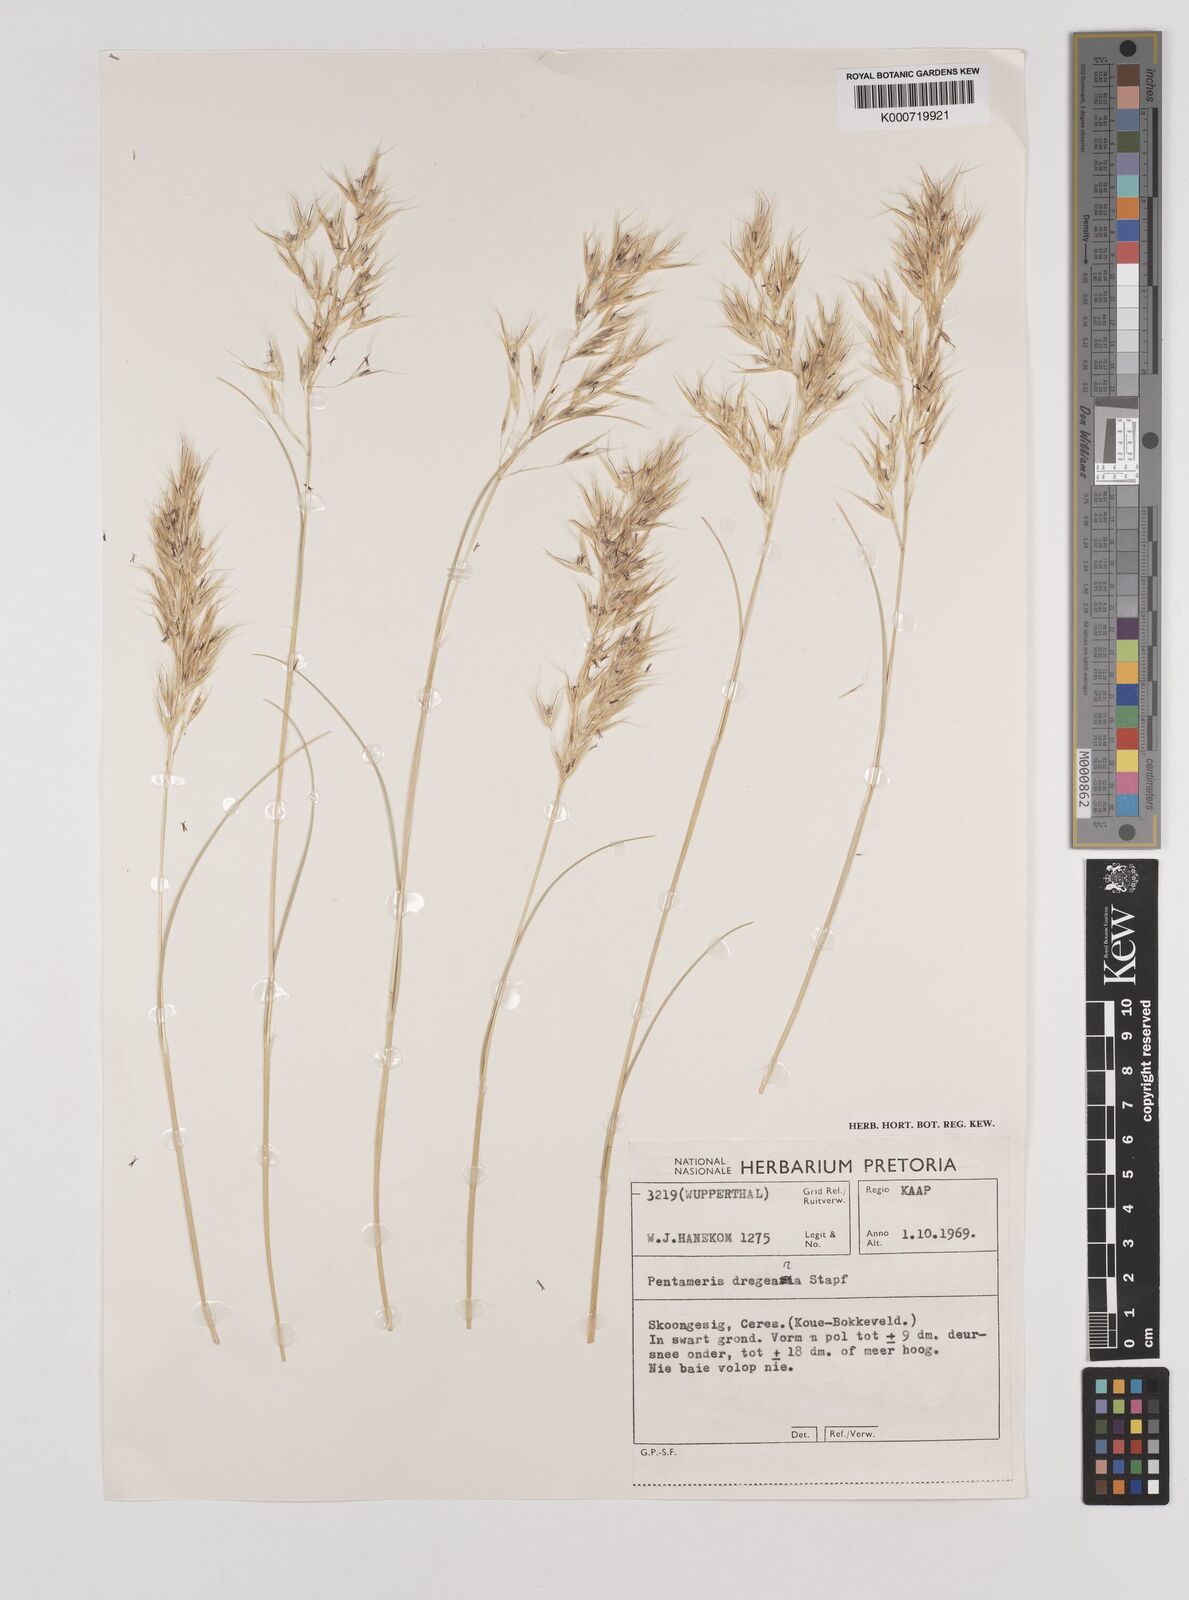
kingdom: Plantae
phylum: Tracheophyta
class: Liliopsida
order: Poales
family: Poaceae
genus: Pentameris
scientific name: Pentameris dregeana
